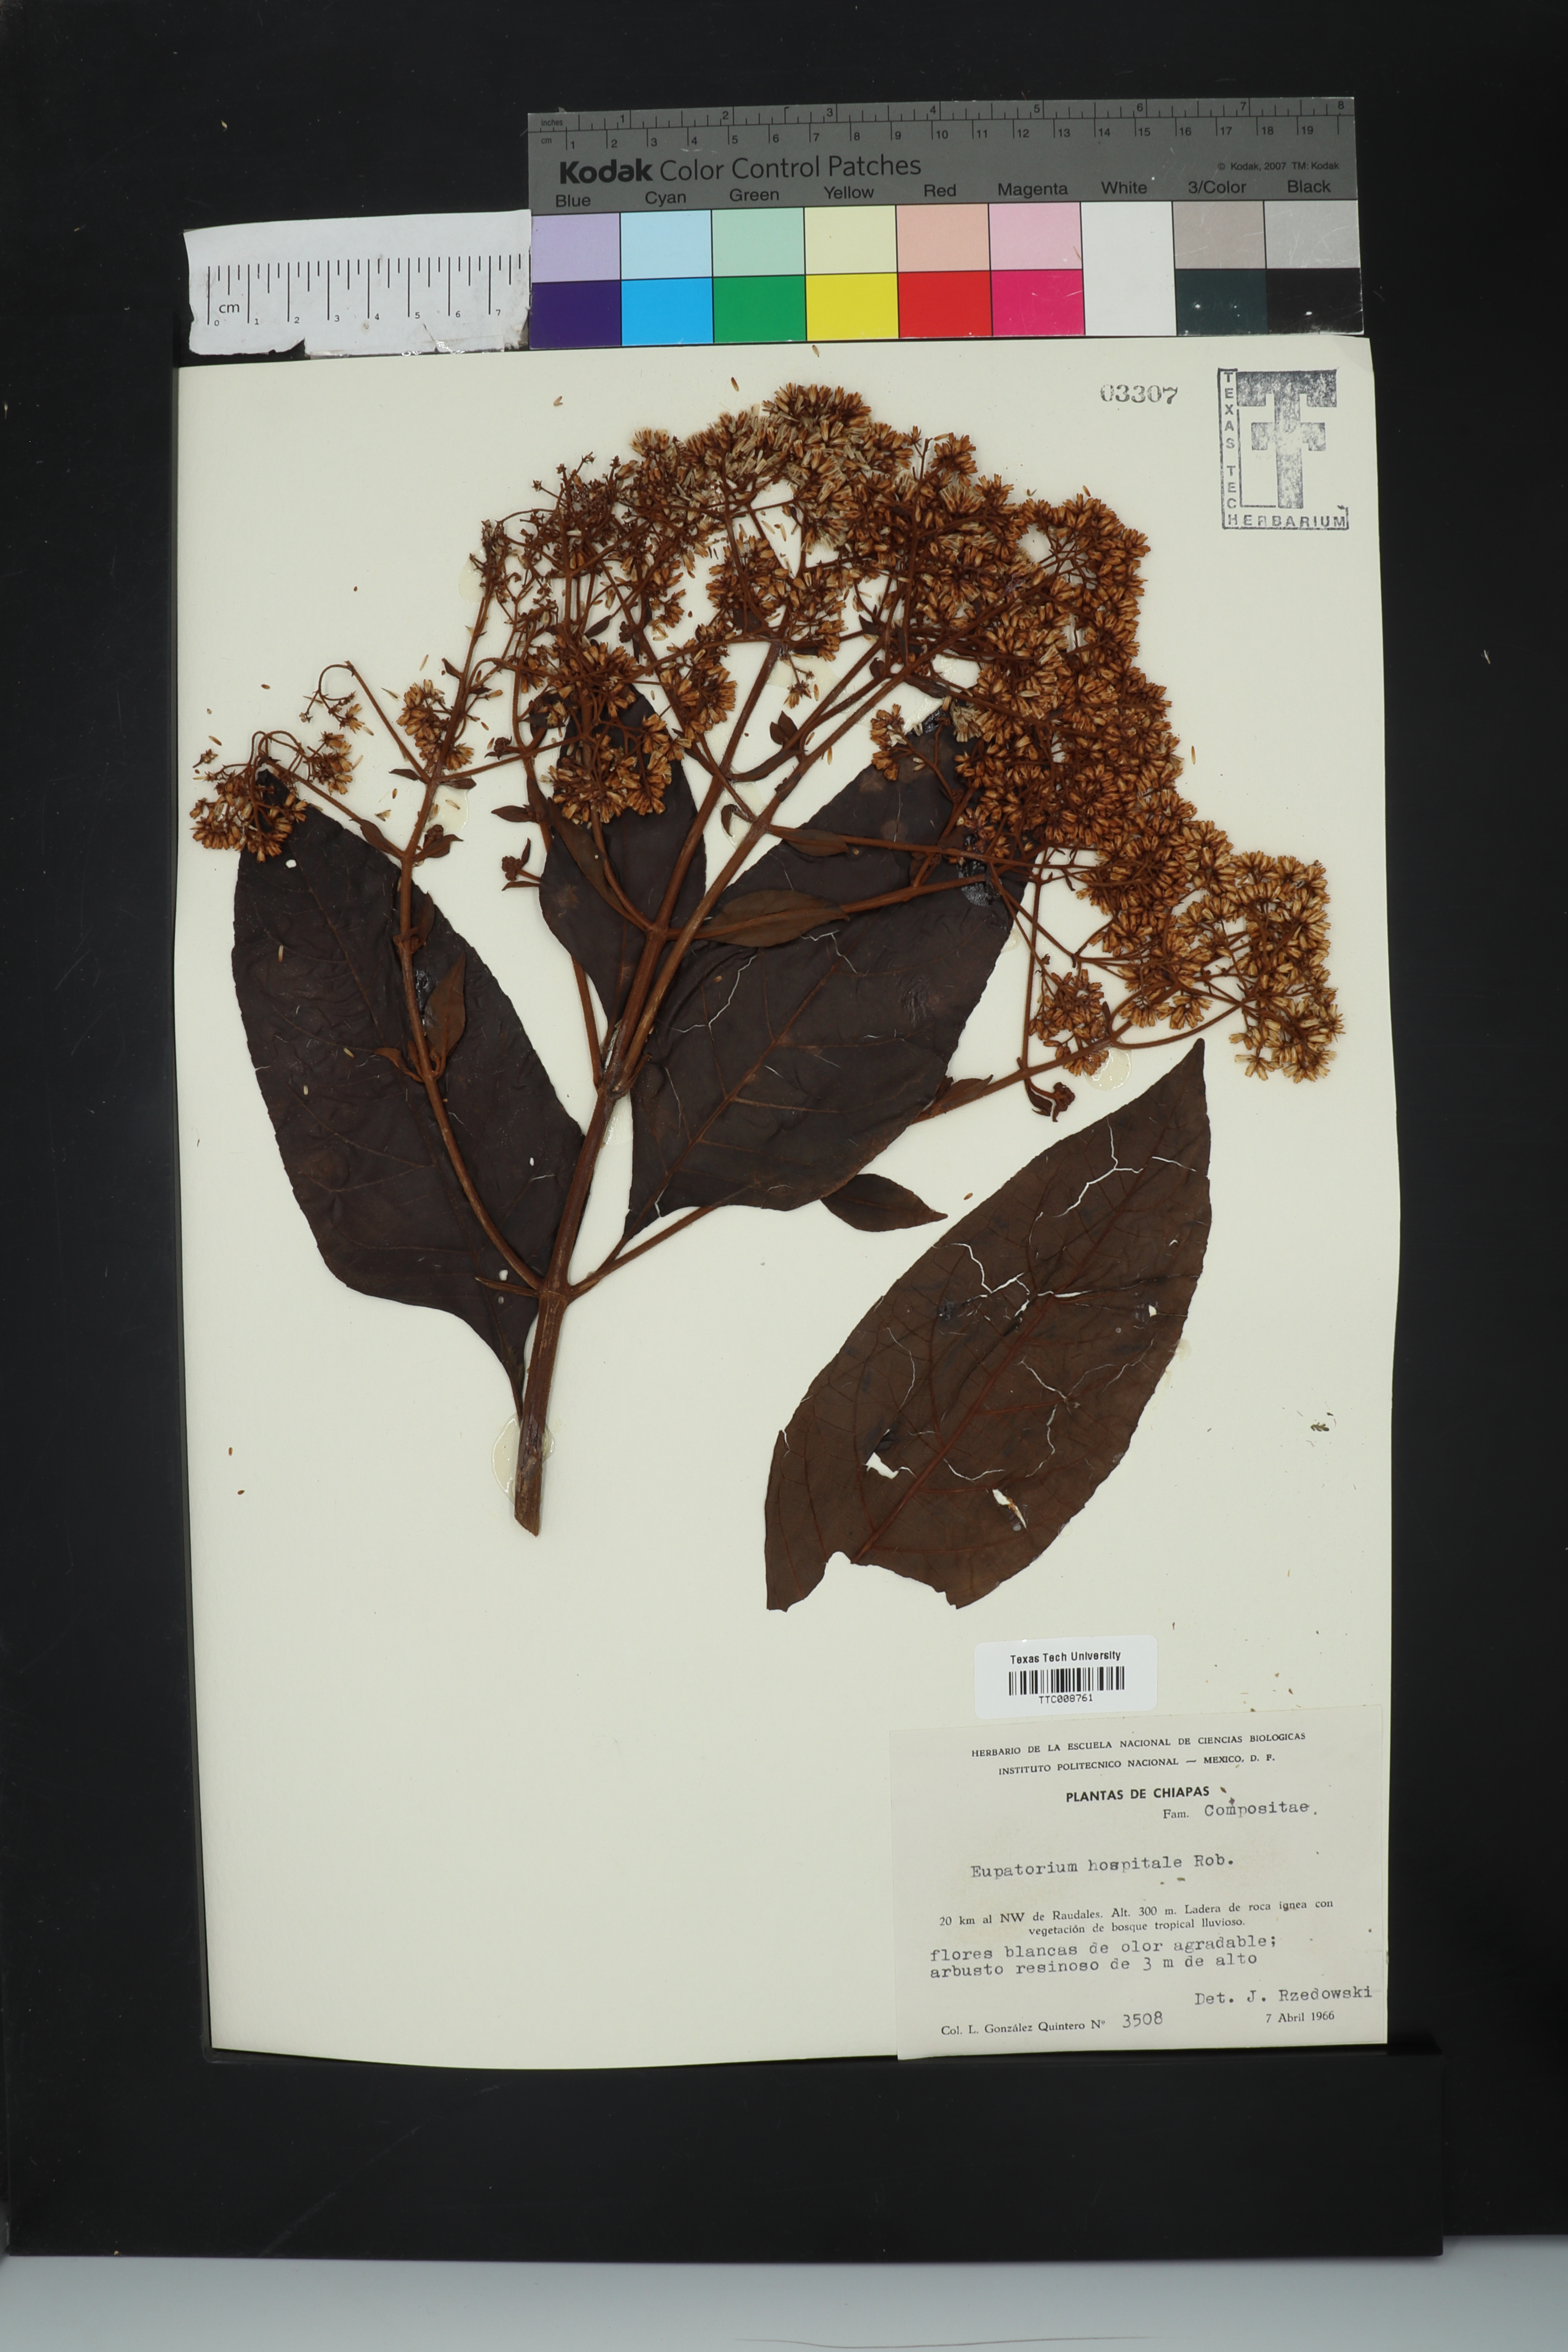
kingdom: Plantae
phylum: Tracheophyta
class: Magnoliopsida
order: Asterales
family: Asteraceae
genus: Critonia
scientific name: Critonia hospitalis
